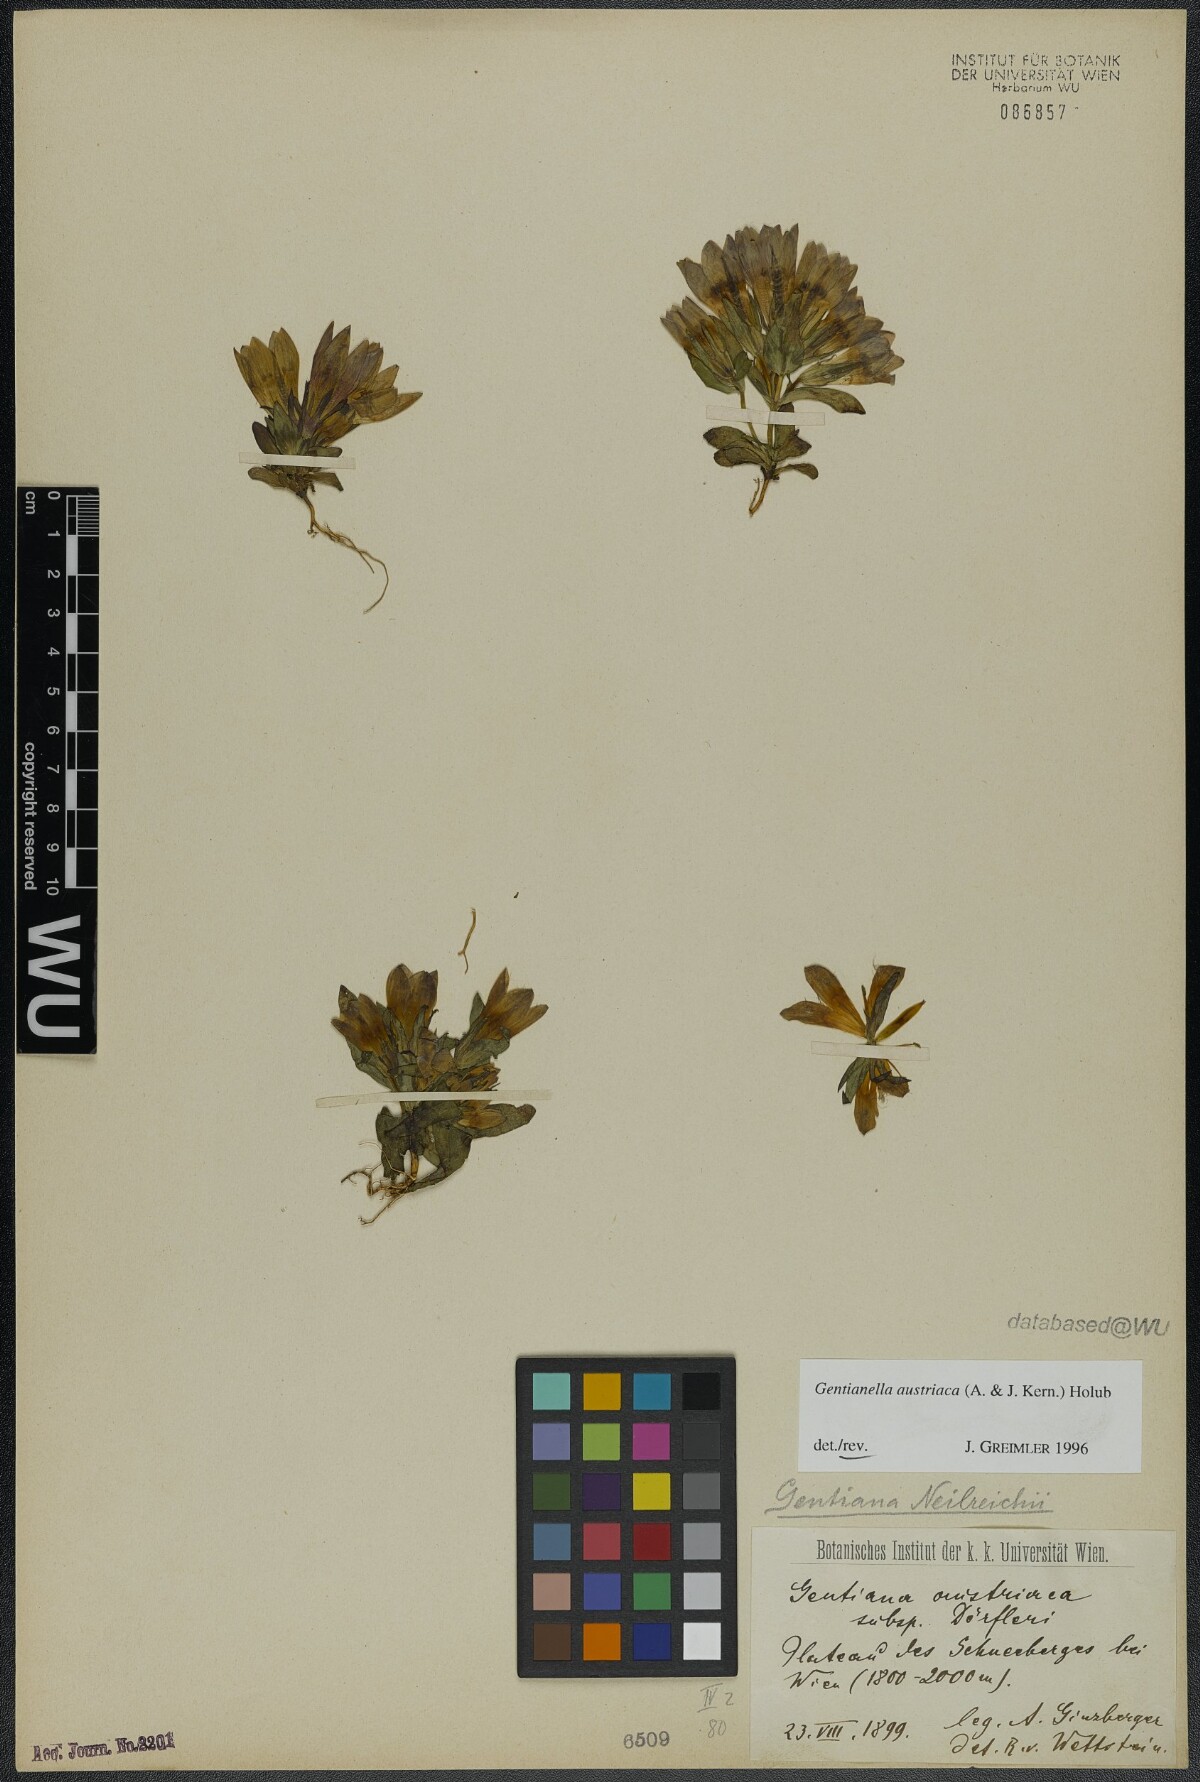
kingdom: Plantae
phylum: Tracheophyta
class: Magnoliopsida
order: Gentianales
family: Gentianaceae
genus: Gentianella
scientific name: Gentianella austriaca
